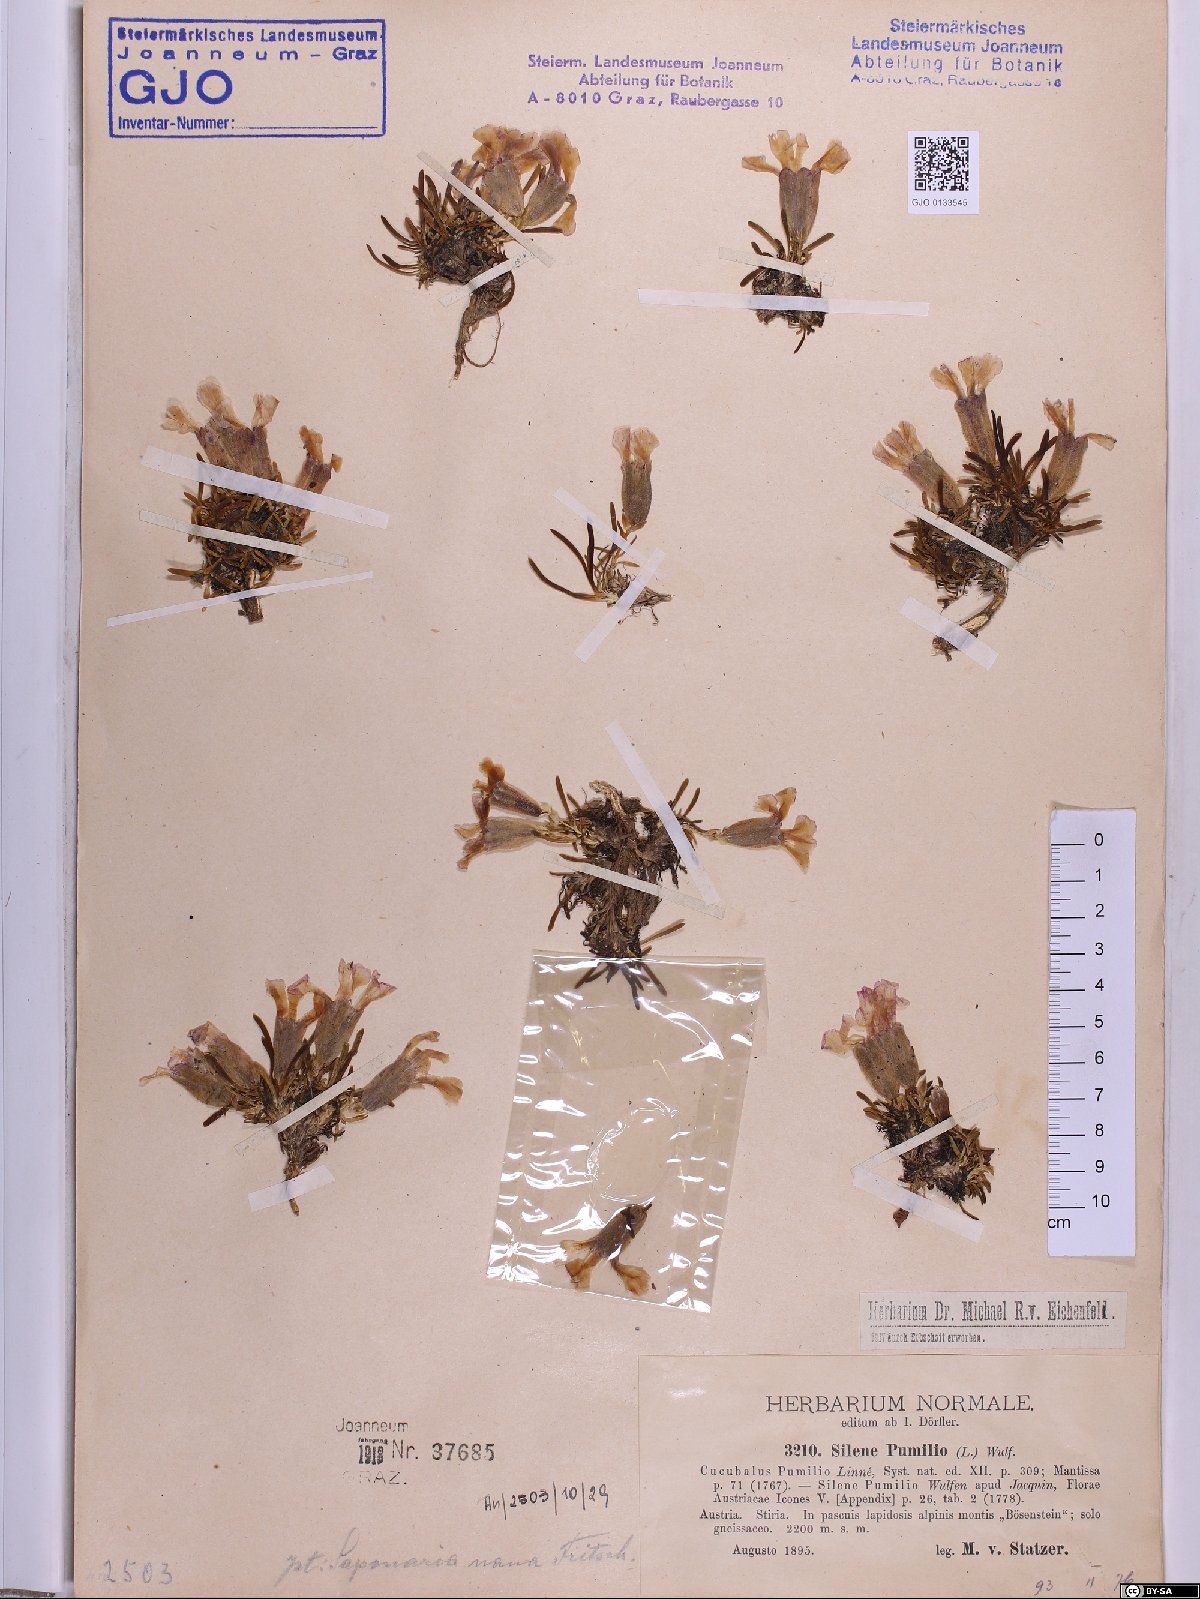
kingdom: Plantae
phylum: Tracheophyta
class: Magnoliopsida
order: Caryophyllales
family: Caryophyllaceae
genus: Saponaria
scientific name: Saponaria pumila
